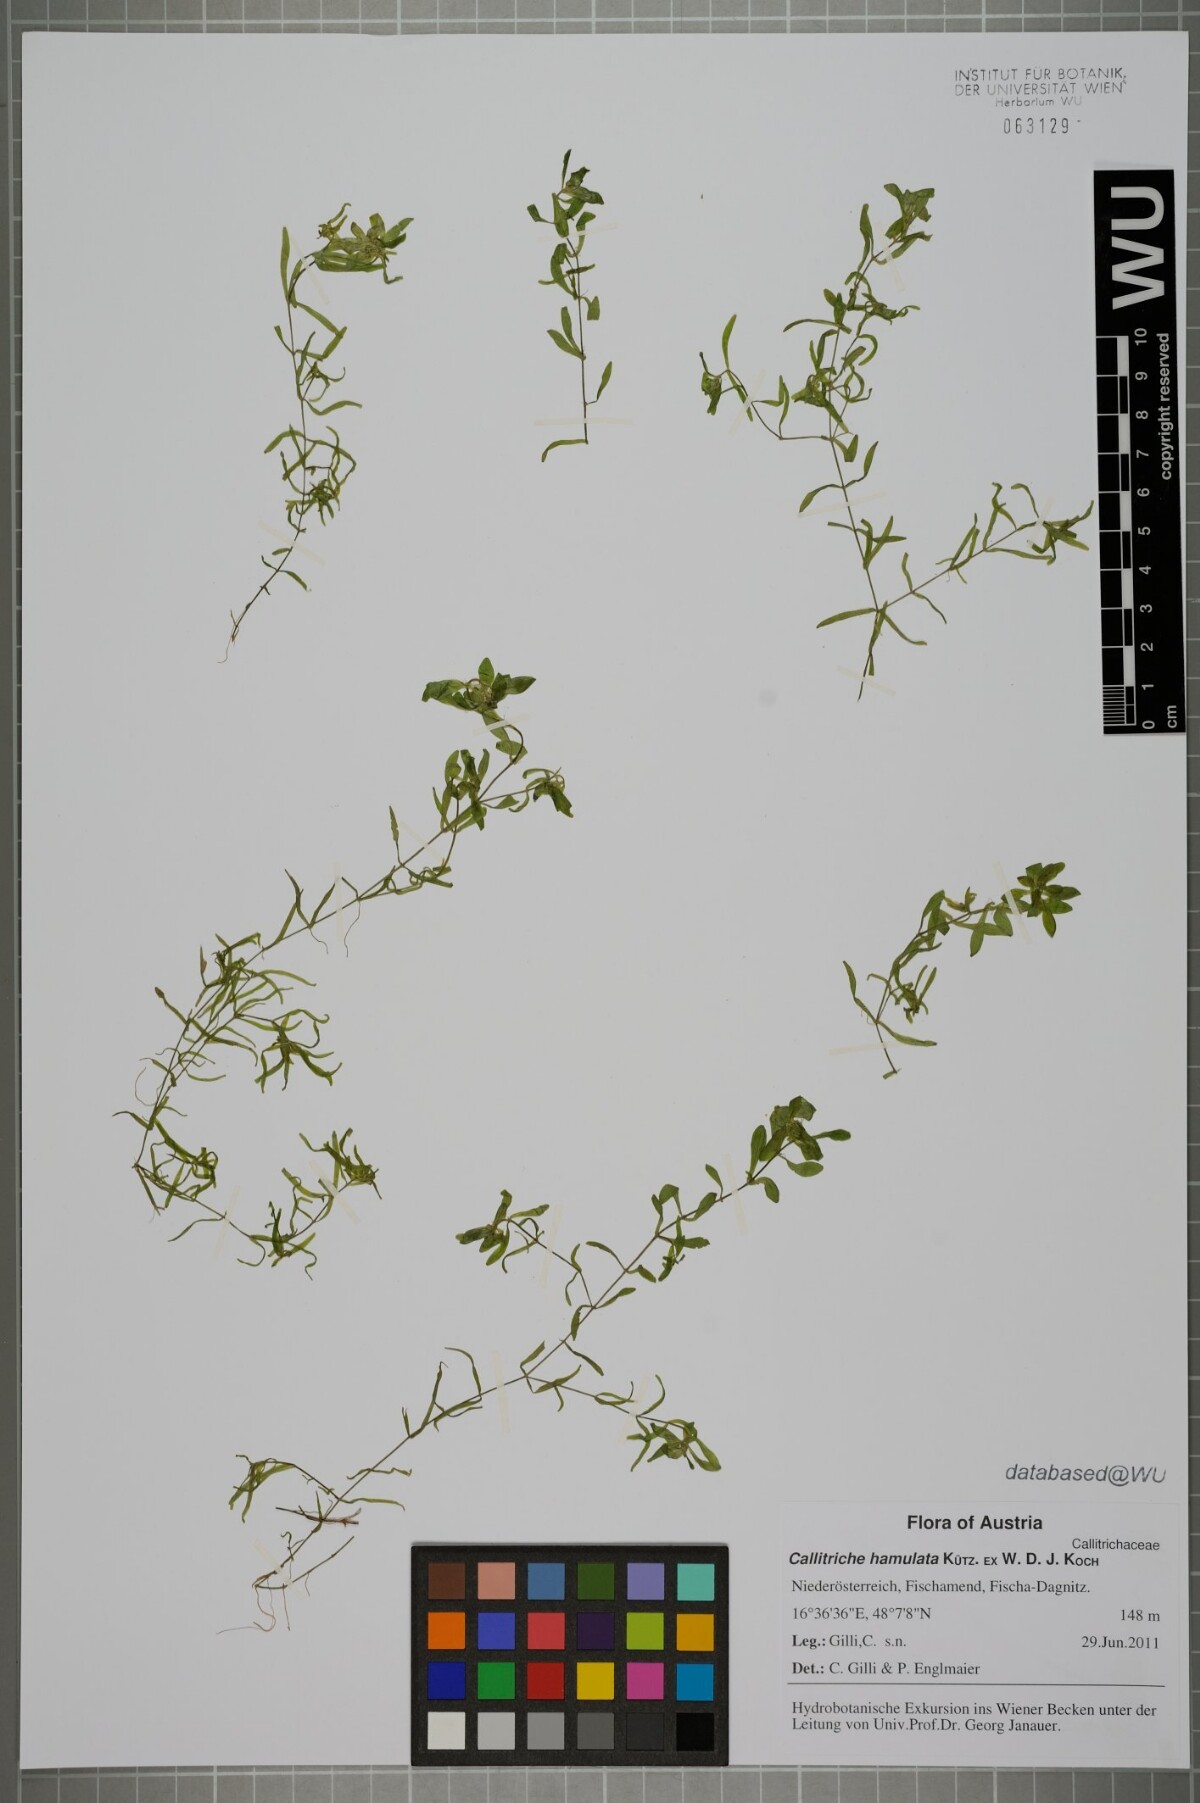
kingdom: Plantae
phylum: Tracheophyta
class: Magnoliopsida
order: Lamiales
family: Plantaginaceae
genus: Callitriche
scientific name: Callitriche hamulata
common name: Intermediate water-starwort
